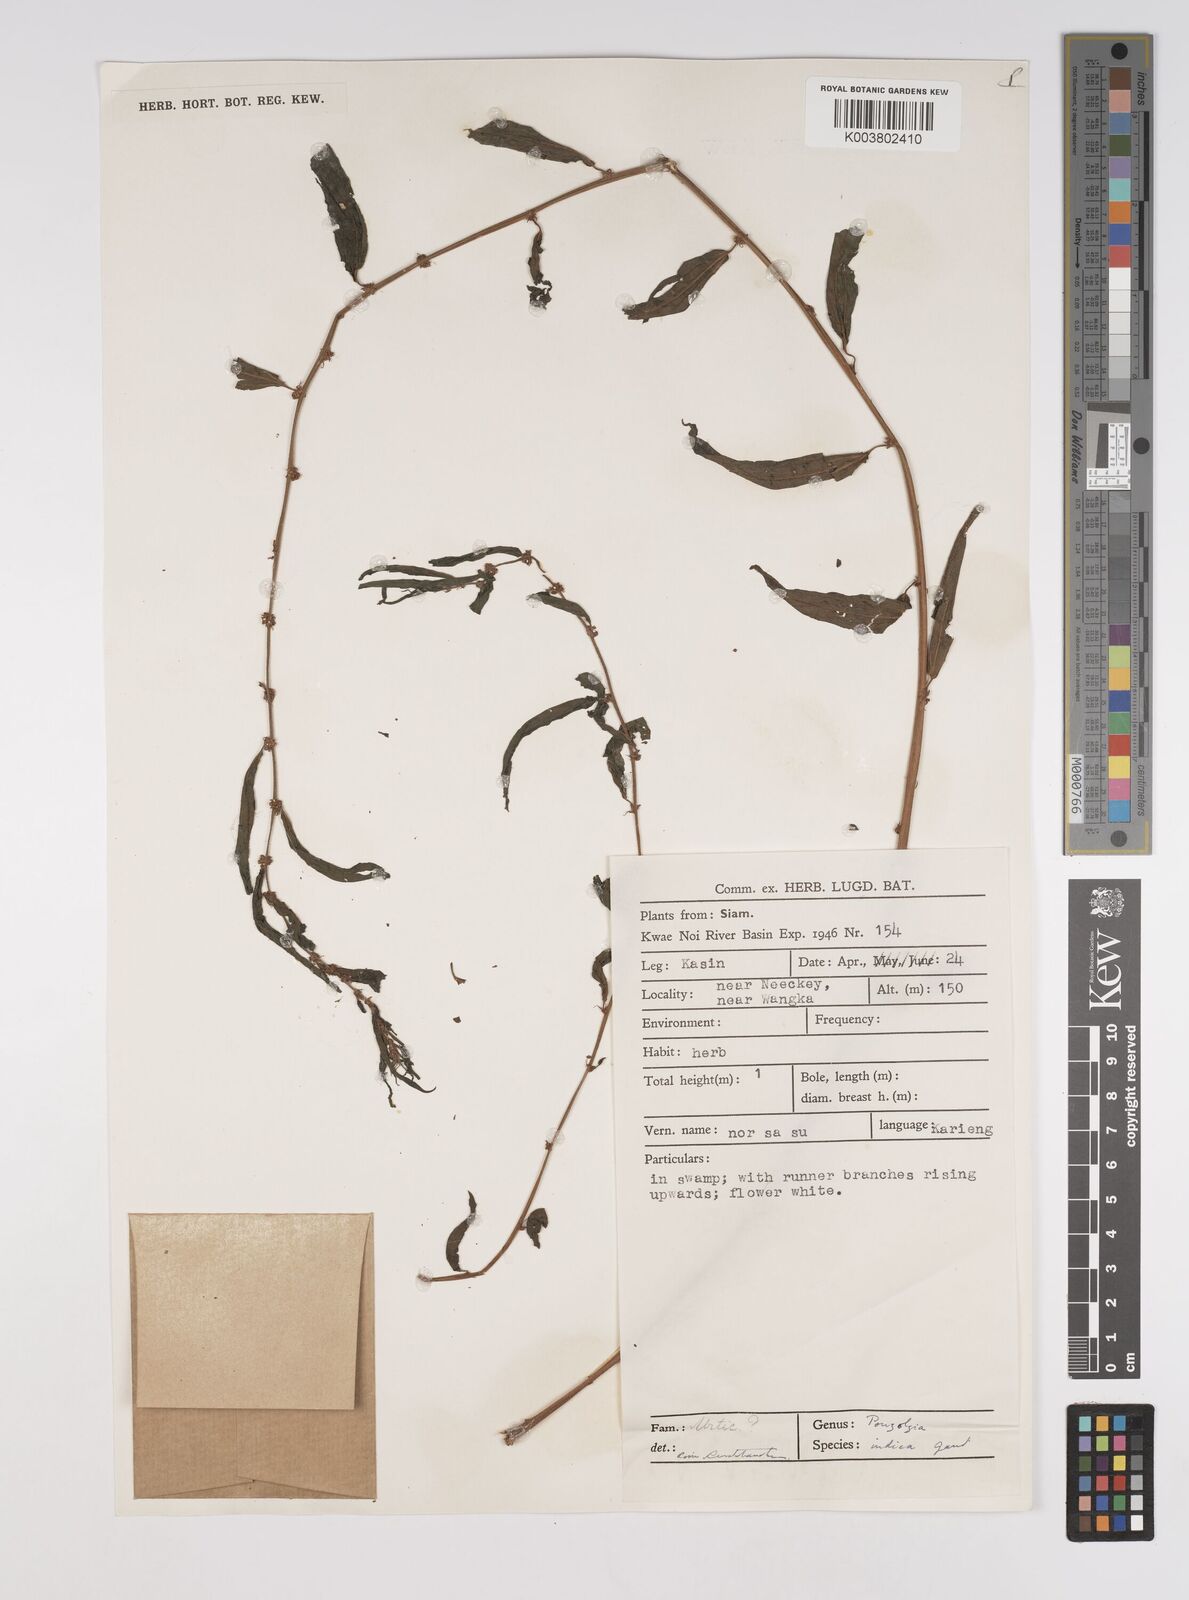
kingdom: Plantae
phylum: Tracheophyta
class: Magnoliopsida
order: Rosales
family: Urticaceae
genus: Pouzolzia
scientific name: Pouzolzia zeylanica
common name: Graceful pouzolzsbush
